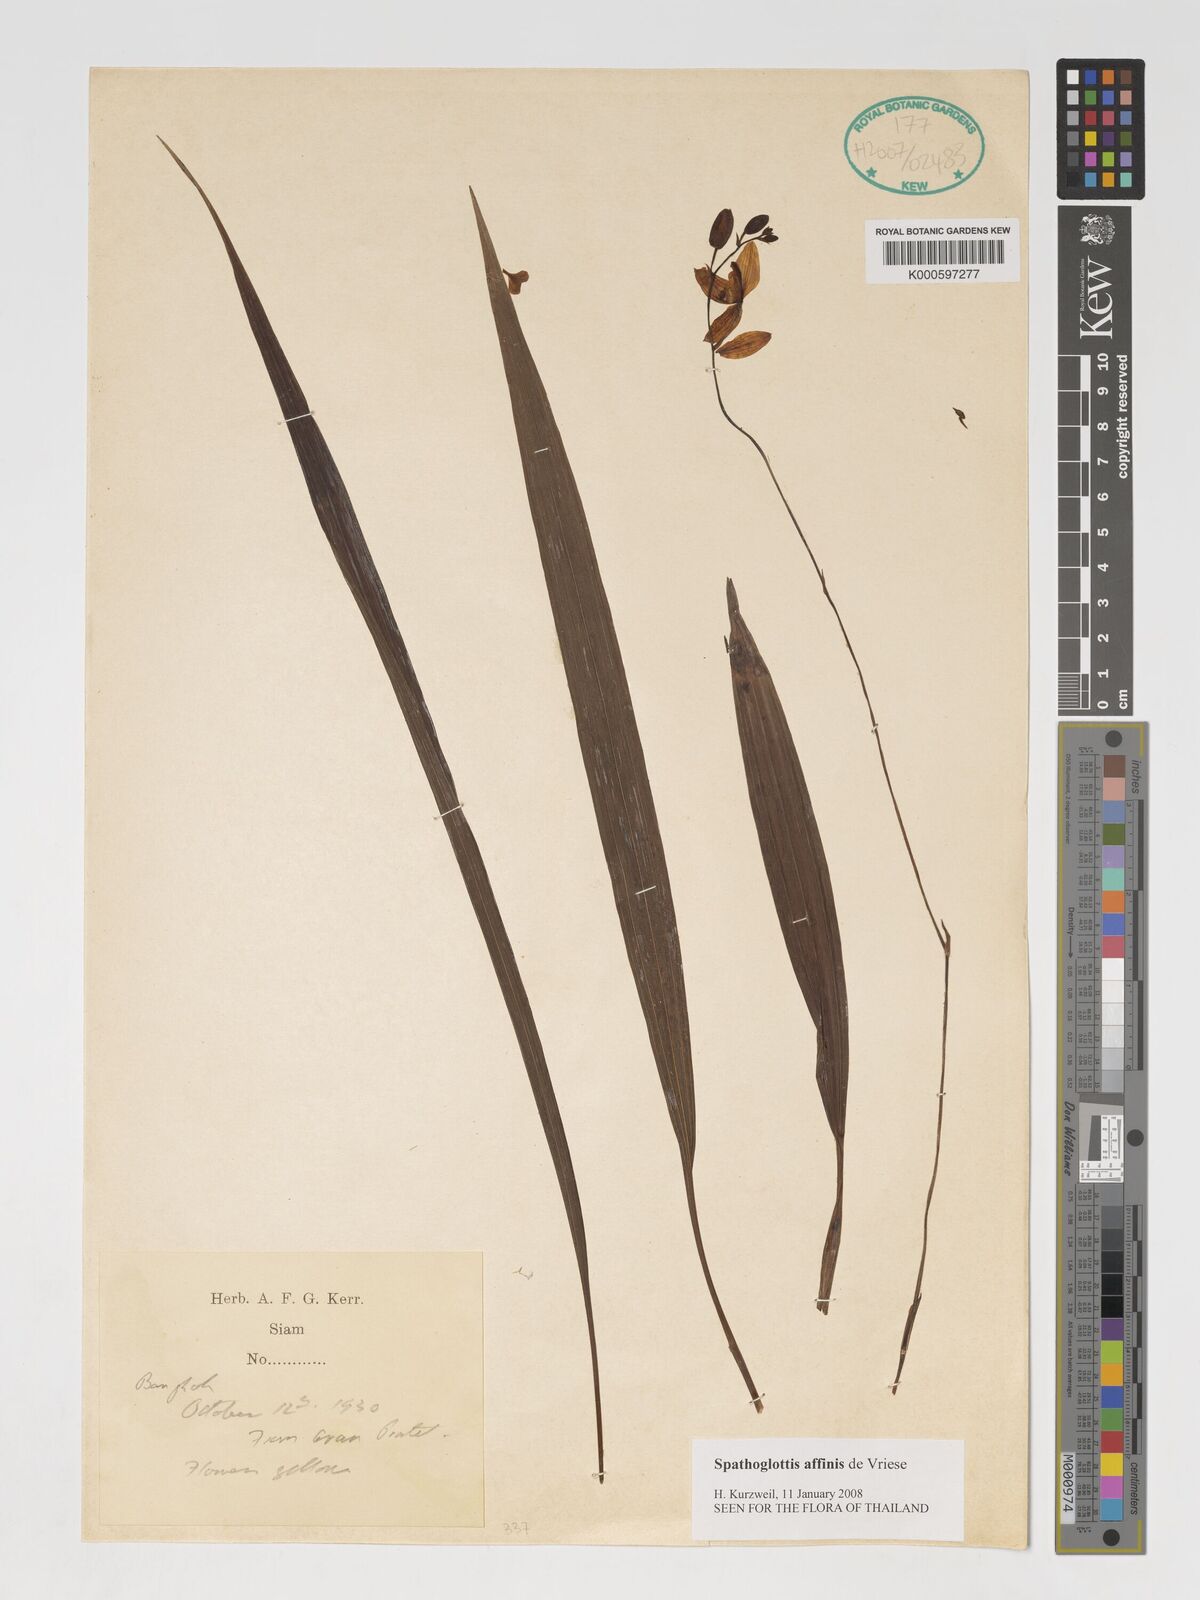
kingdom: Plantae
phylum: Tracheophyta
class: Liliopsida
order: Asparagales
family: Orchidaceae
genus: Spathoglottis
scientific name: Spathoglottis affinis
